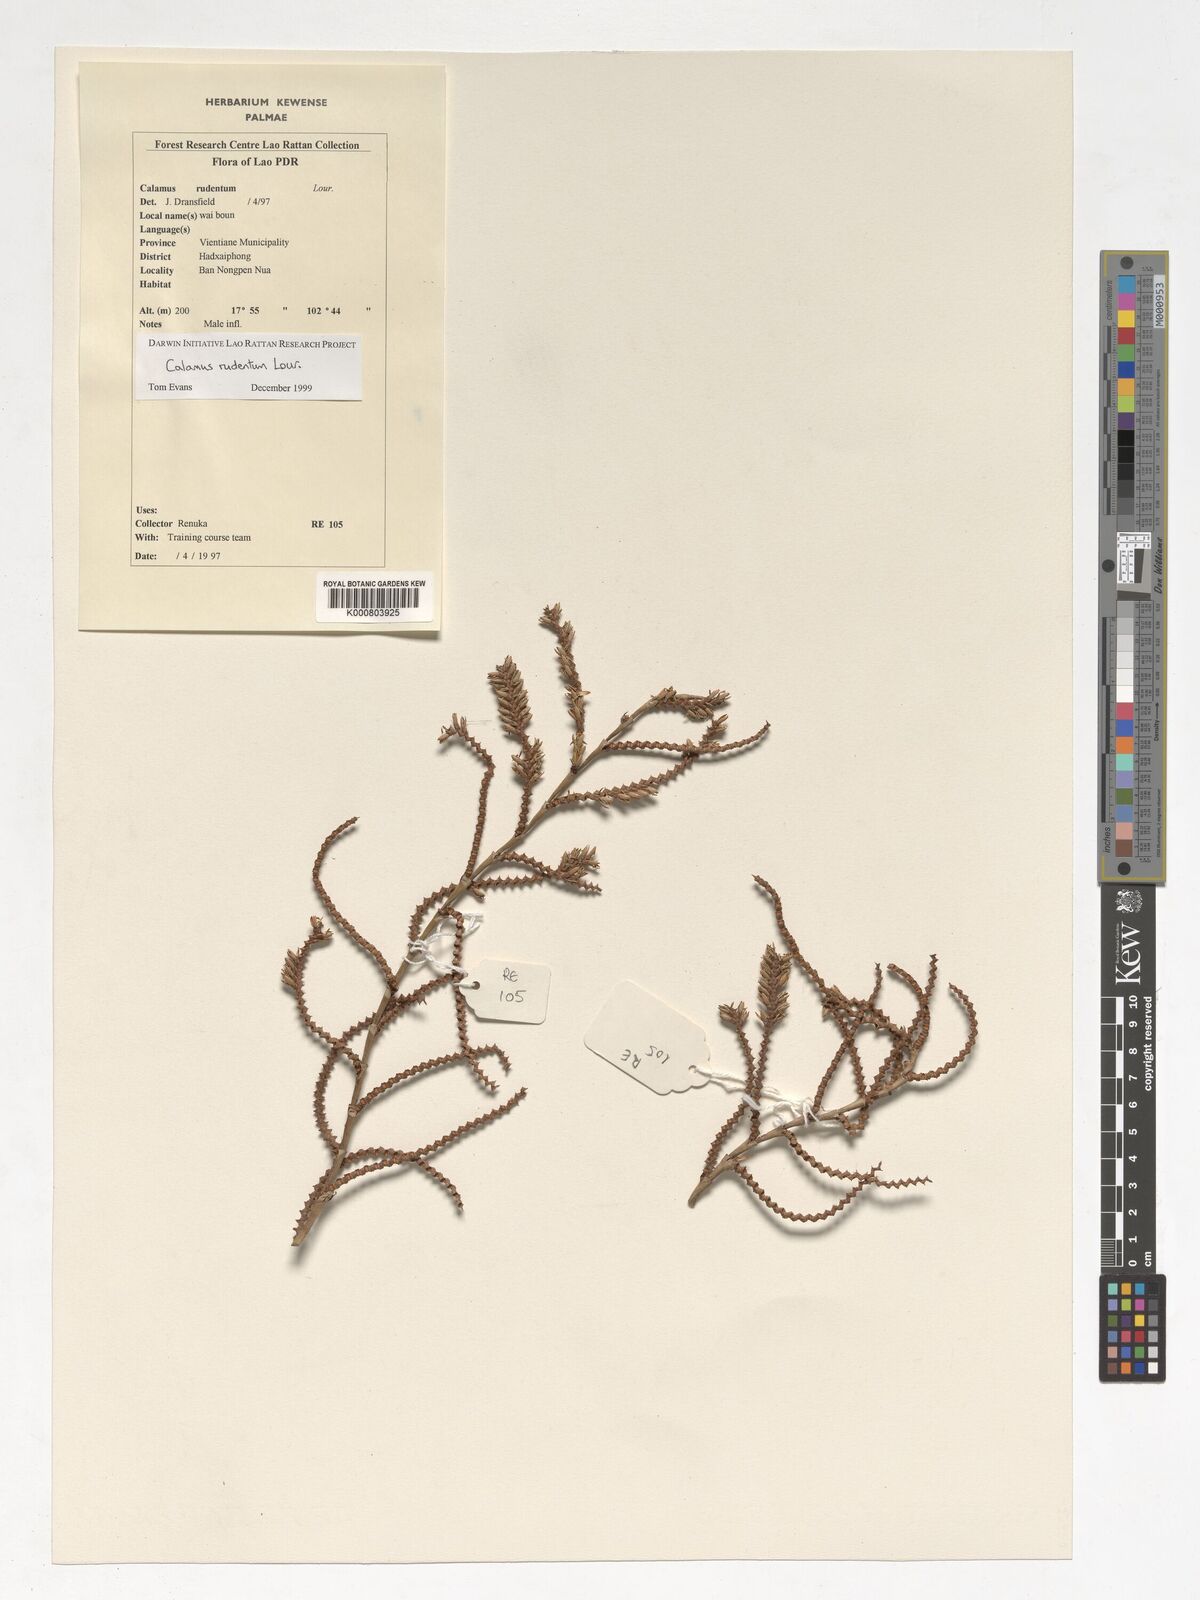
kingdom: Plantae
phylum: Tracheophyta
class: Liliopsida
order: Arecales
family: Arecaceae
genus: Calamus
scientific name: Calamus rudentum
